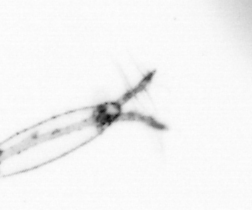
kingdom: Animalia
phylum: Arthropoda
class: Copepoda
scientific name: Copepoda
